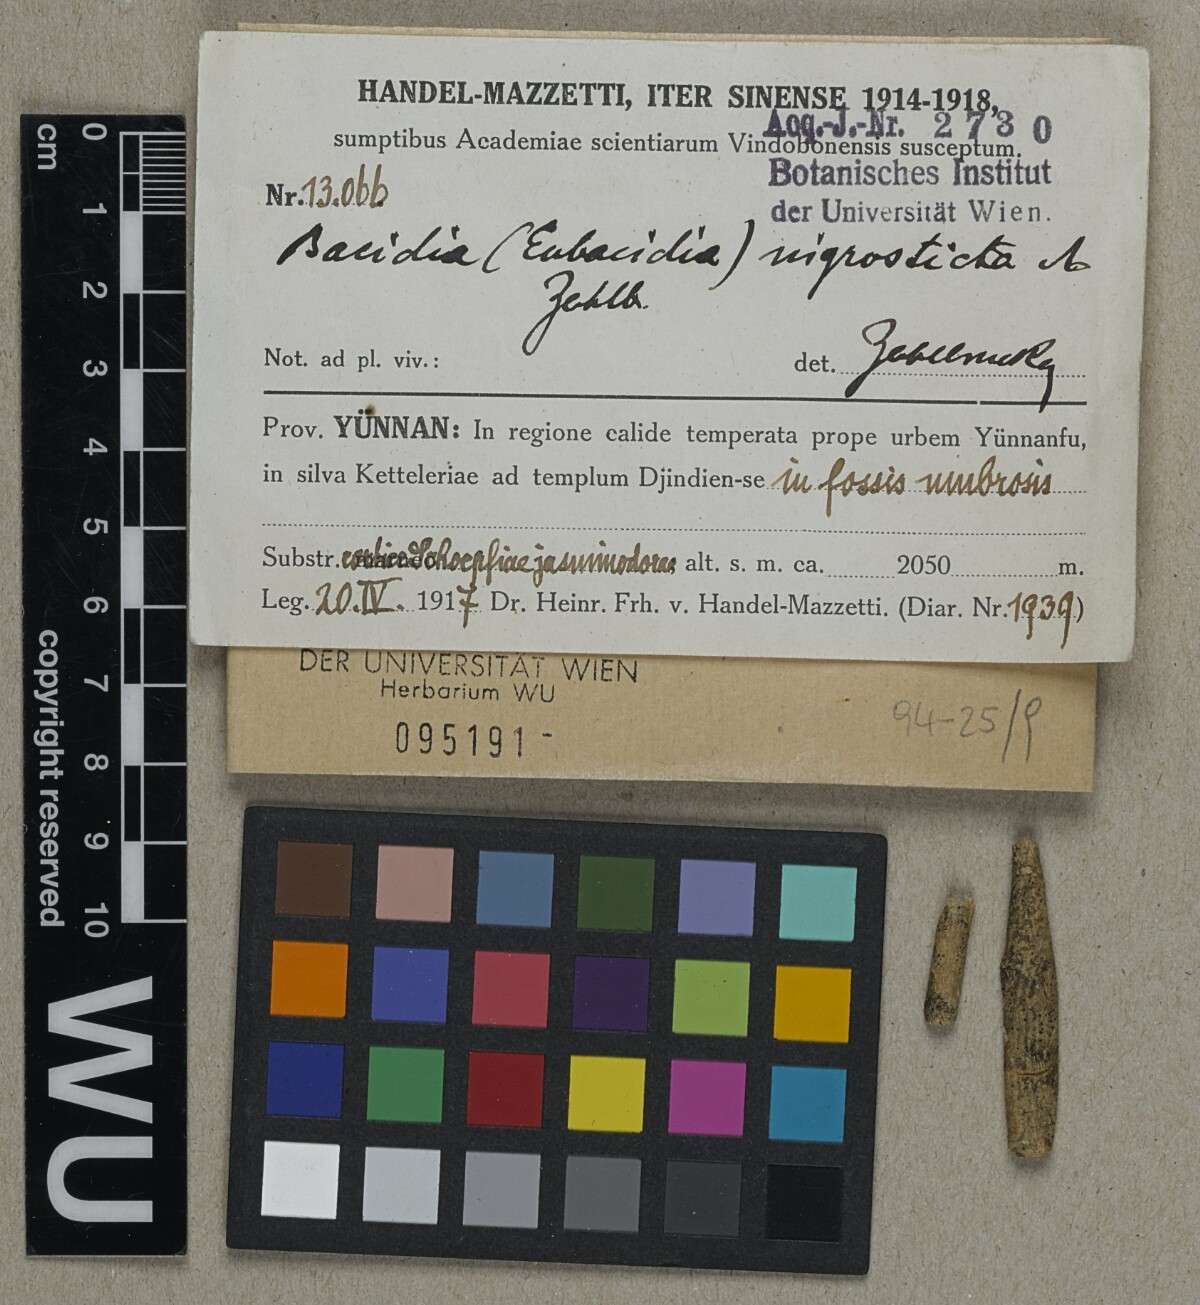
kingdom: Fungi
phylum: Ascomycota
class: Lecanoromycetes
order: Lecanorales
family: Ramalinaceae
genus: Bacidia
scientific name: Bacidia
